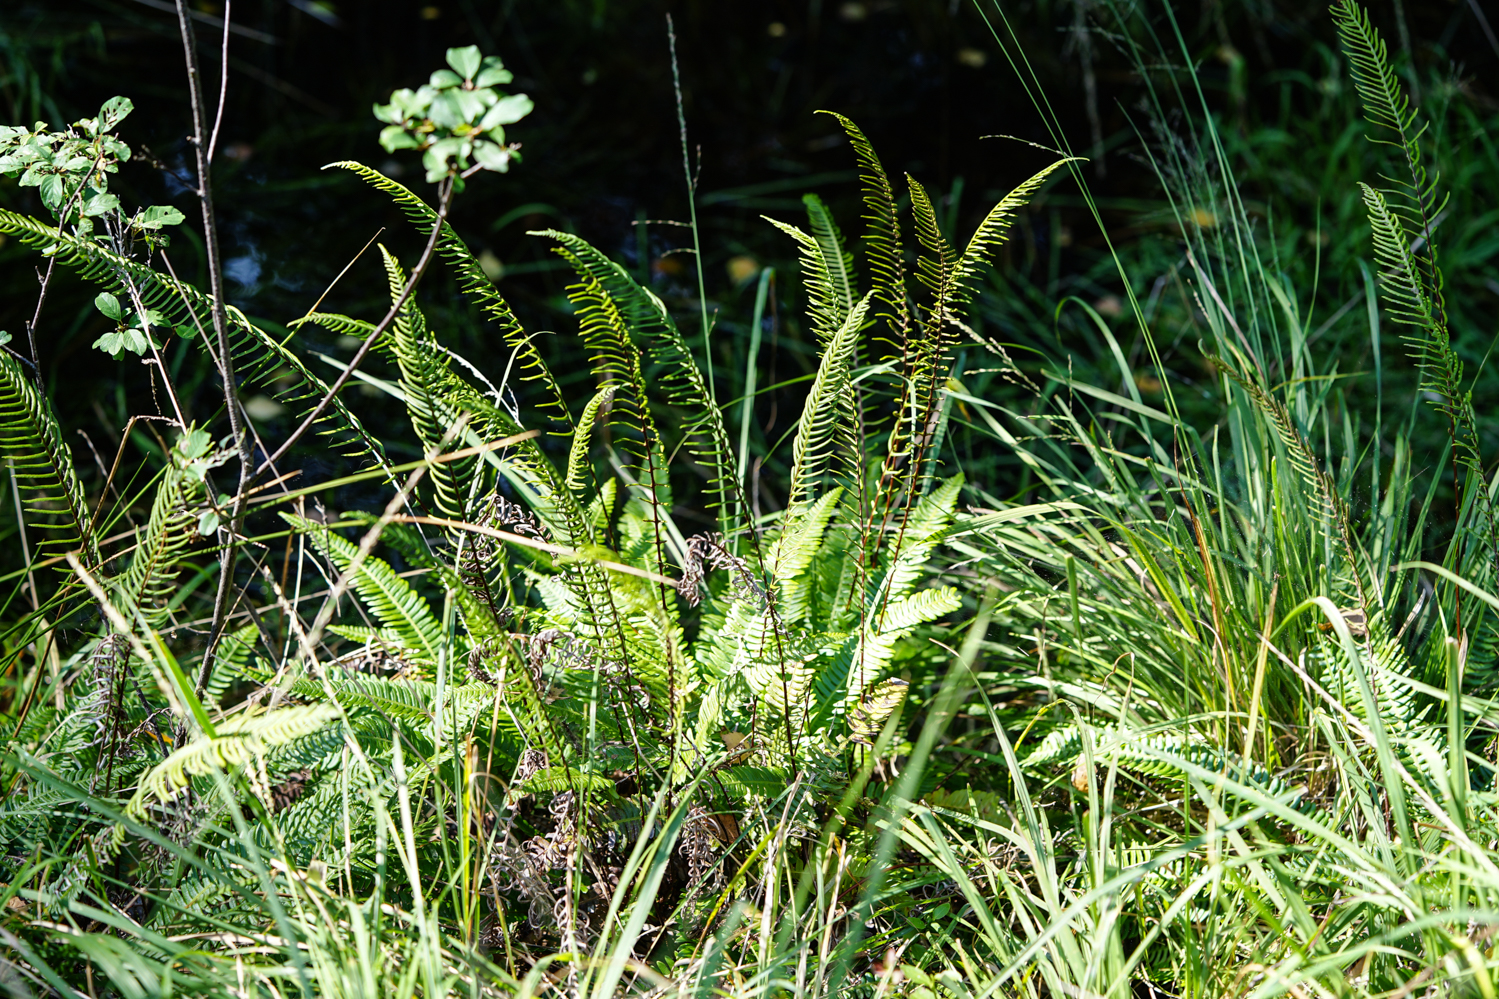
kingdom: Plantae
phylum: Tracheophyta
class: Polypodiopsida
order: Polypodiales
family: Blechnaceae
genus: Struthiopteris
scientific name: Struthiopteris spicant
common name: Deer fern
